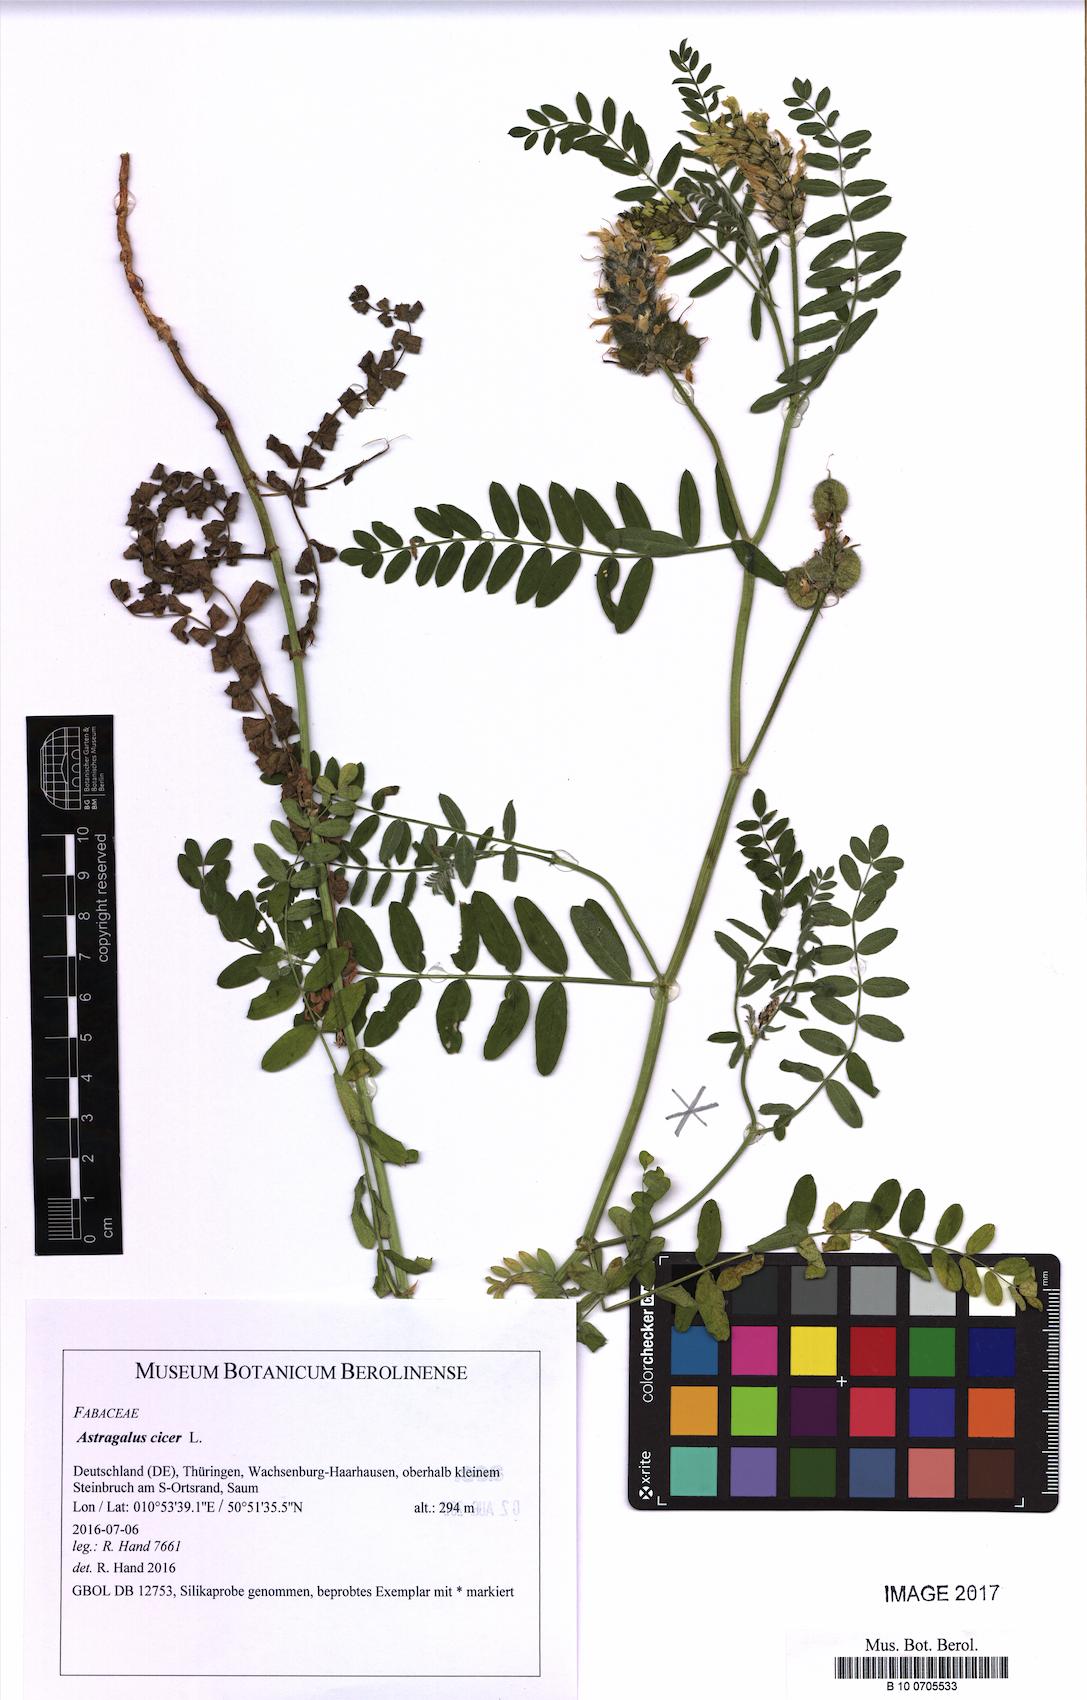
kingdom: Plantae
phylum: Tracheophyta
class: Magnoliopsida
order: Fabales
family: Fabaceae
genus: Astragalus
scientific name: Astragalus cicer
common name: Chick-pea milk-vetch
